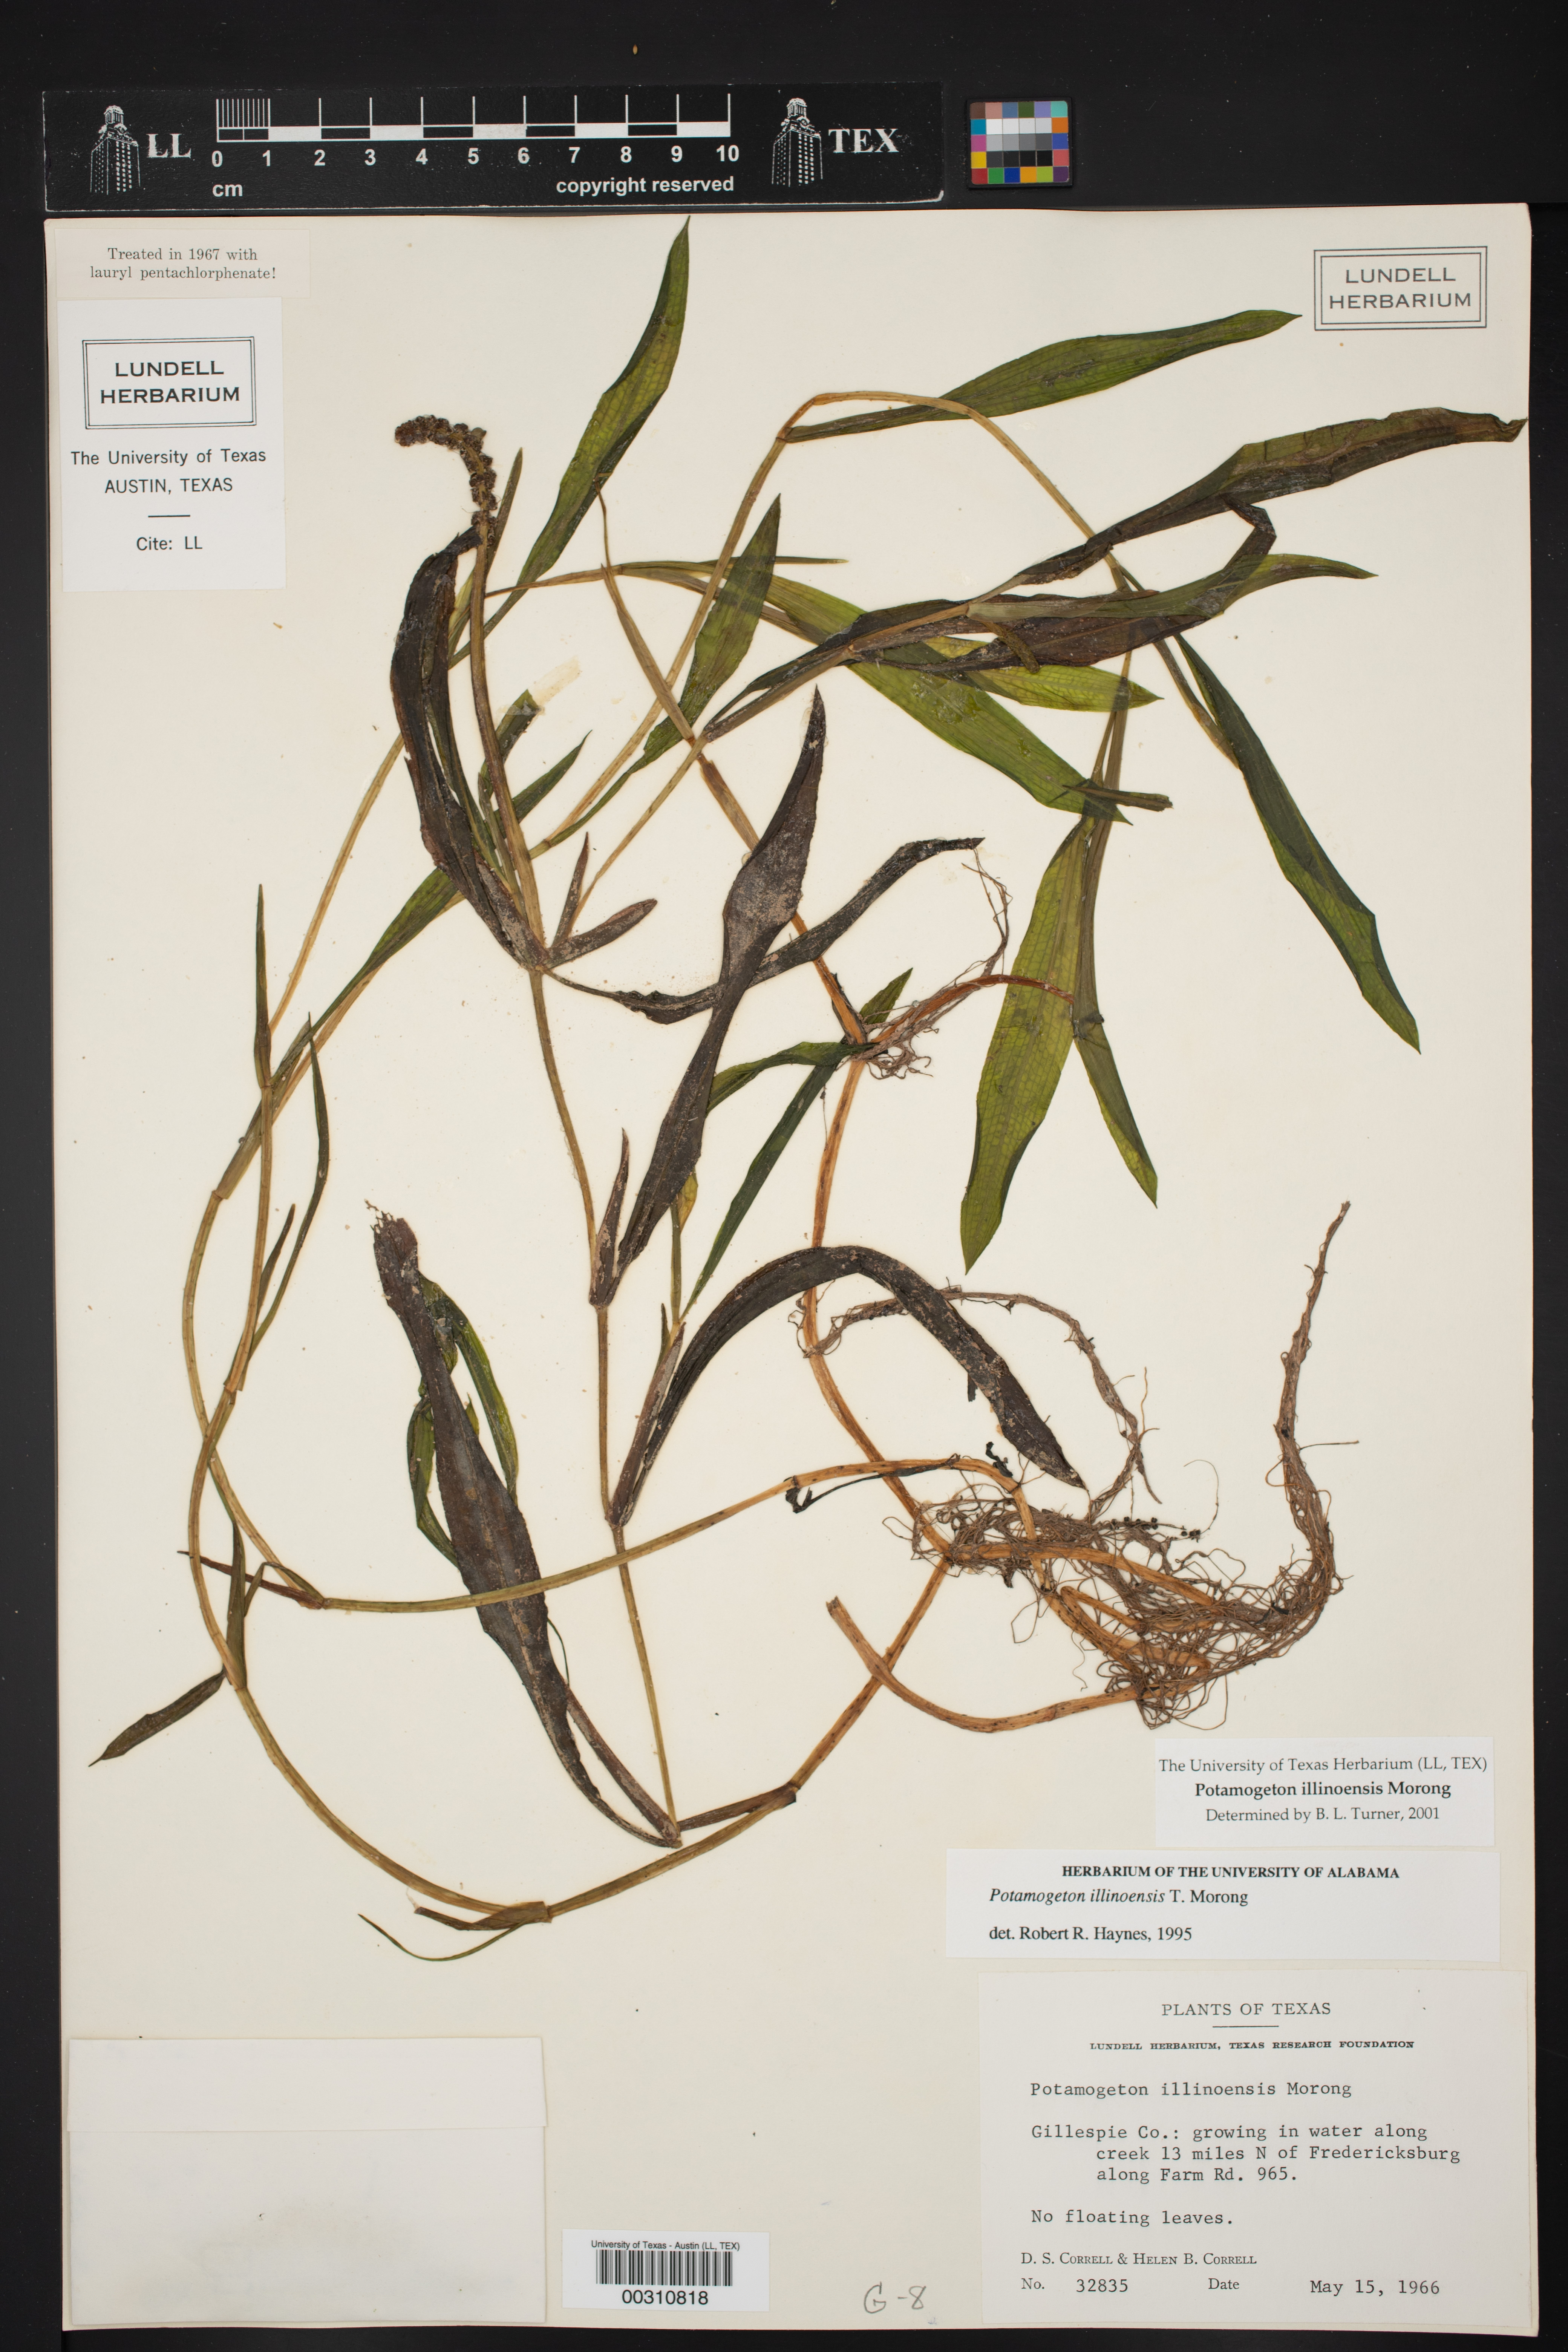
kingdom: Plantae
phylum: Tracheophyta
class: Liliopsida
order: Alismatales
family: Potamogetonaceae
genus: Potamogeton
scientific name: Potamogeton illinoensis
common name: Illinois pondweed
